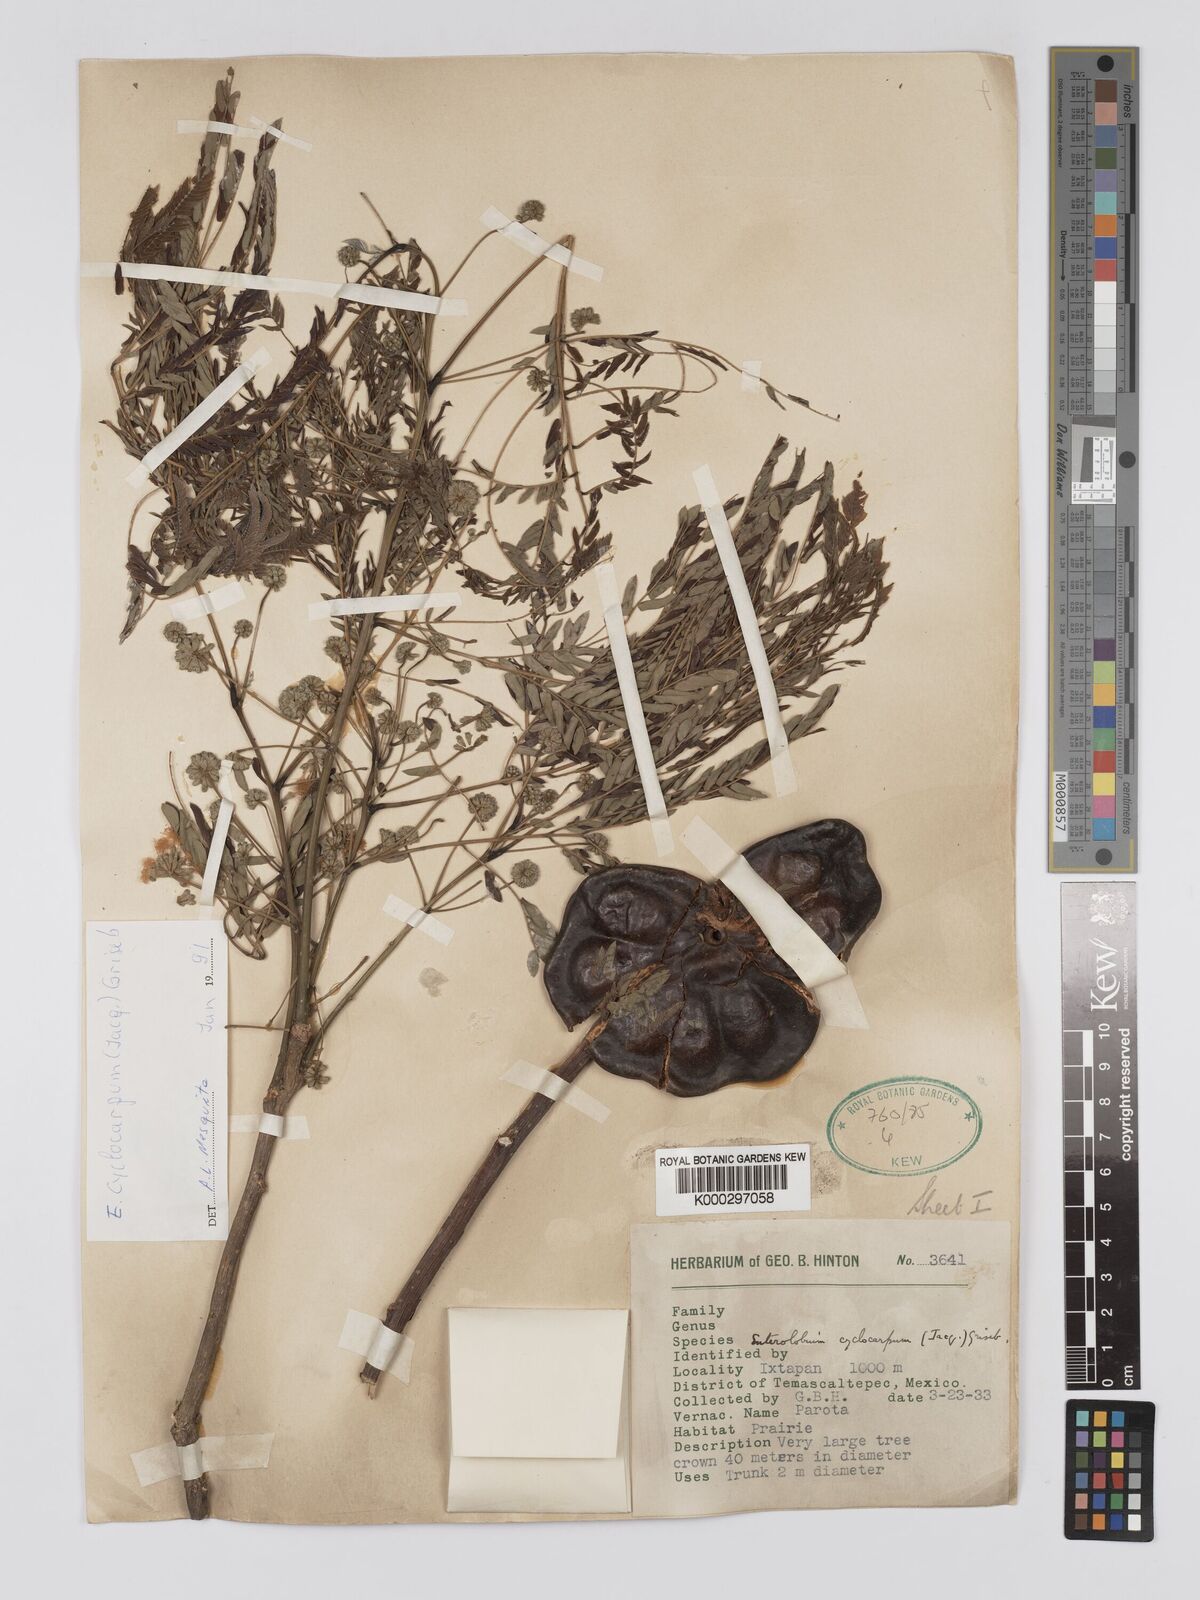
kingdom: Plantae
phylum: Tracheophyta
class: Magnoliopsida
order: Fabales
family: Fabaceae
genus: Enterolobium
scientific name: Enterolobium cyclocarpum
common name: Ear tree
